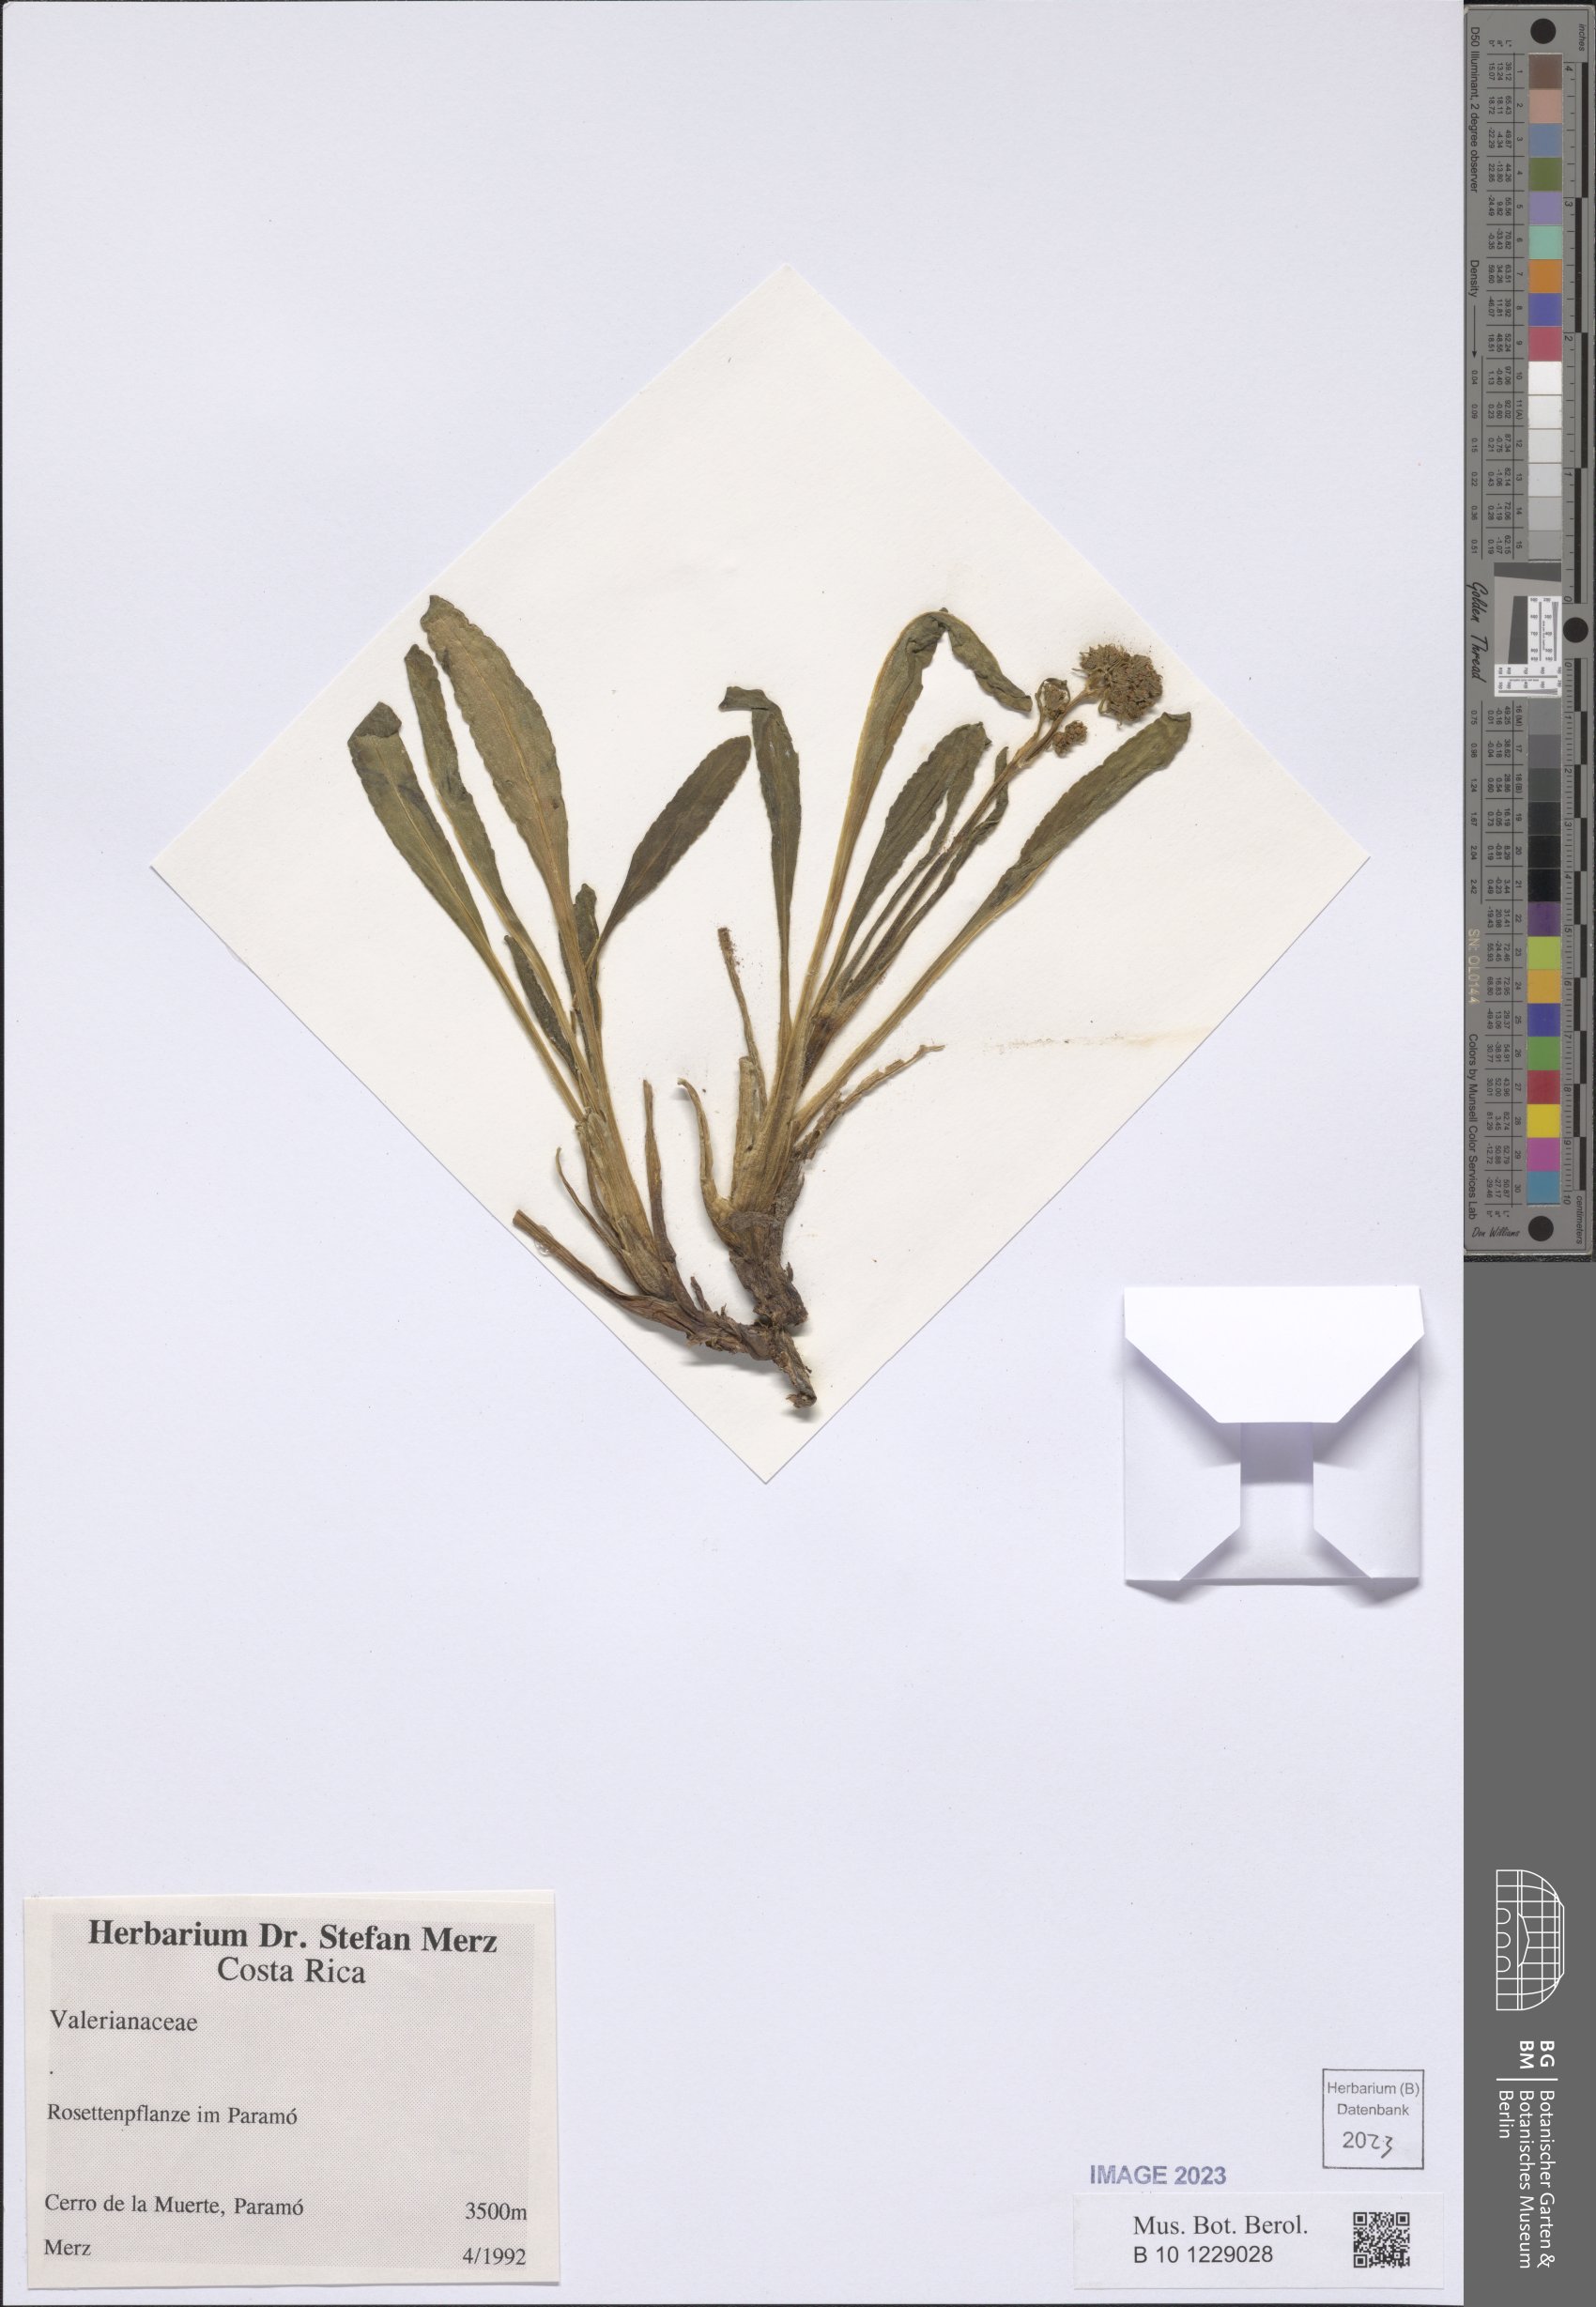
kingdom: Plantae
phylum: Tracheophyta
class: Magnoliopsida
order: Dipsacales
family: Valerianaceae
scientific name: Valerianaceae
